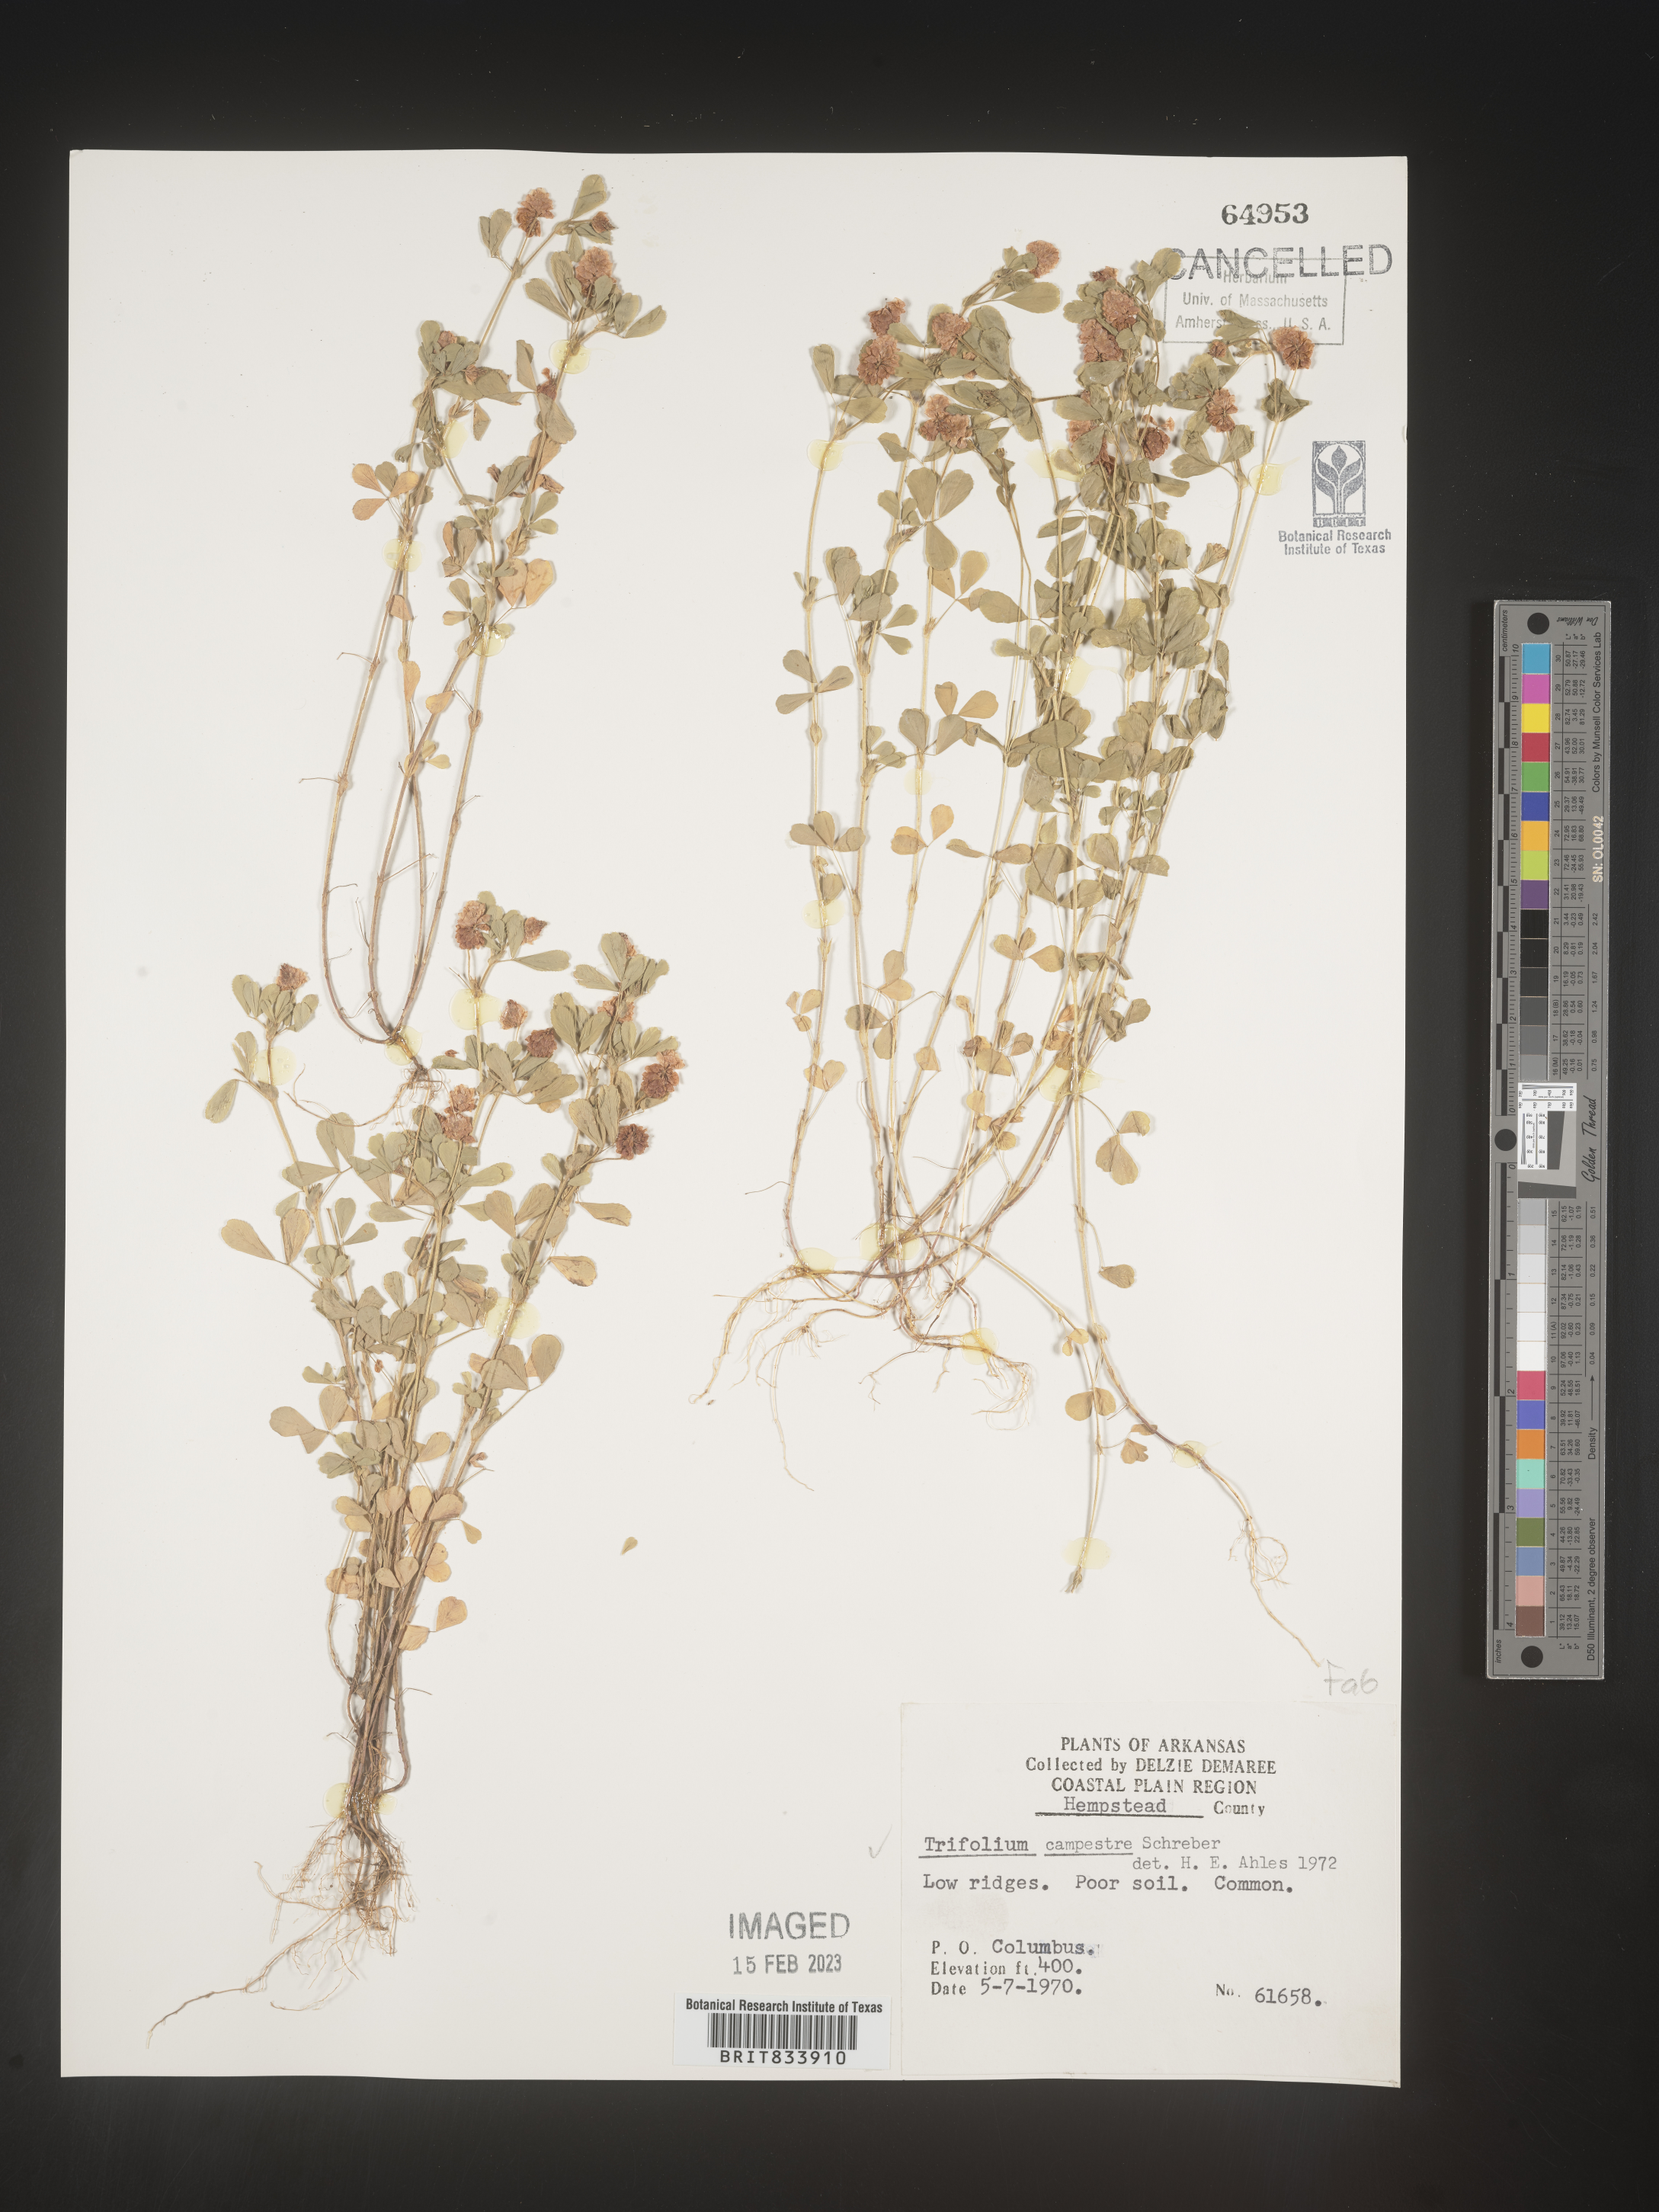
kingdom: Plantae
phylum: Tracheophyta
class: Magnoliopsida
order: Fabales
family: Fabaceae
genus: Trifolium
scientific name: Trifolium campestre
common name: Field clover
